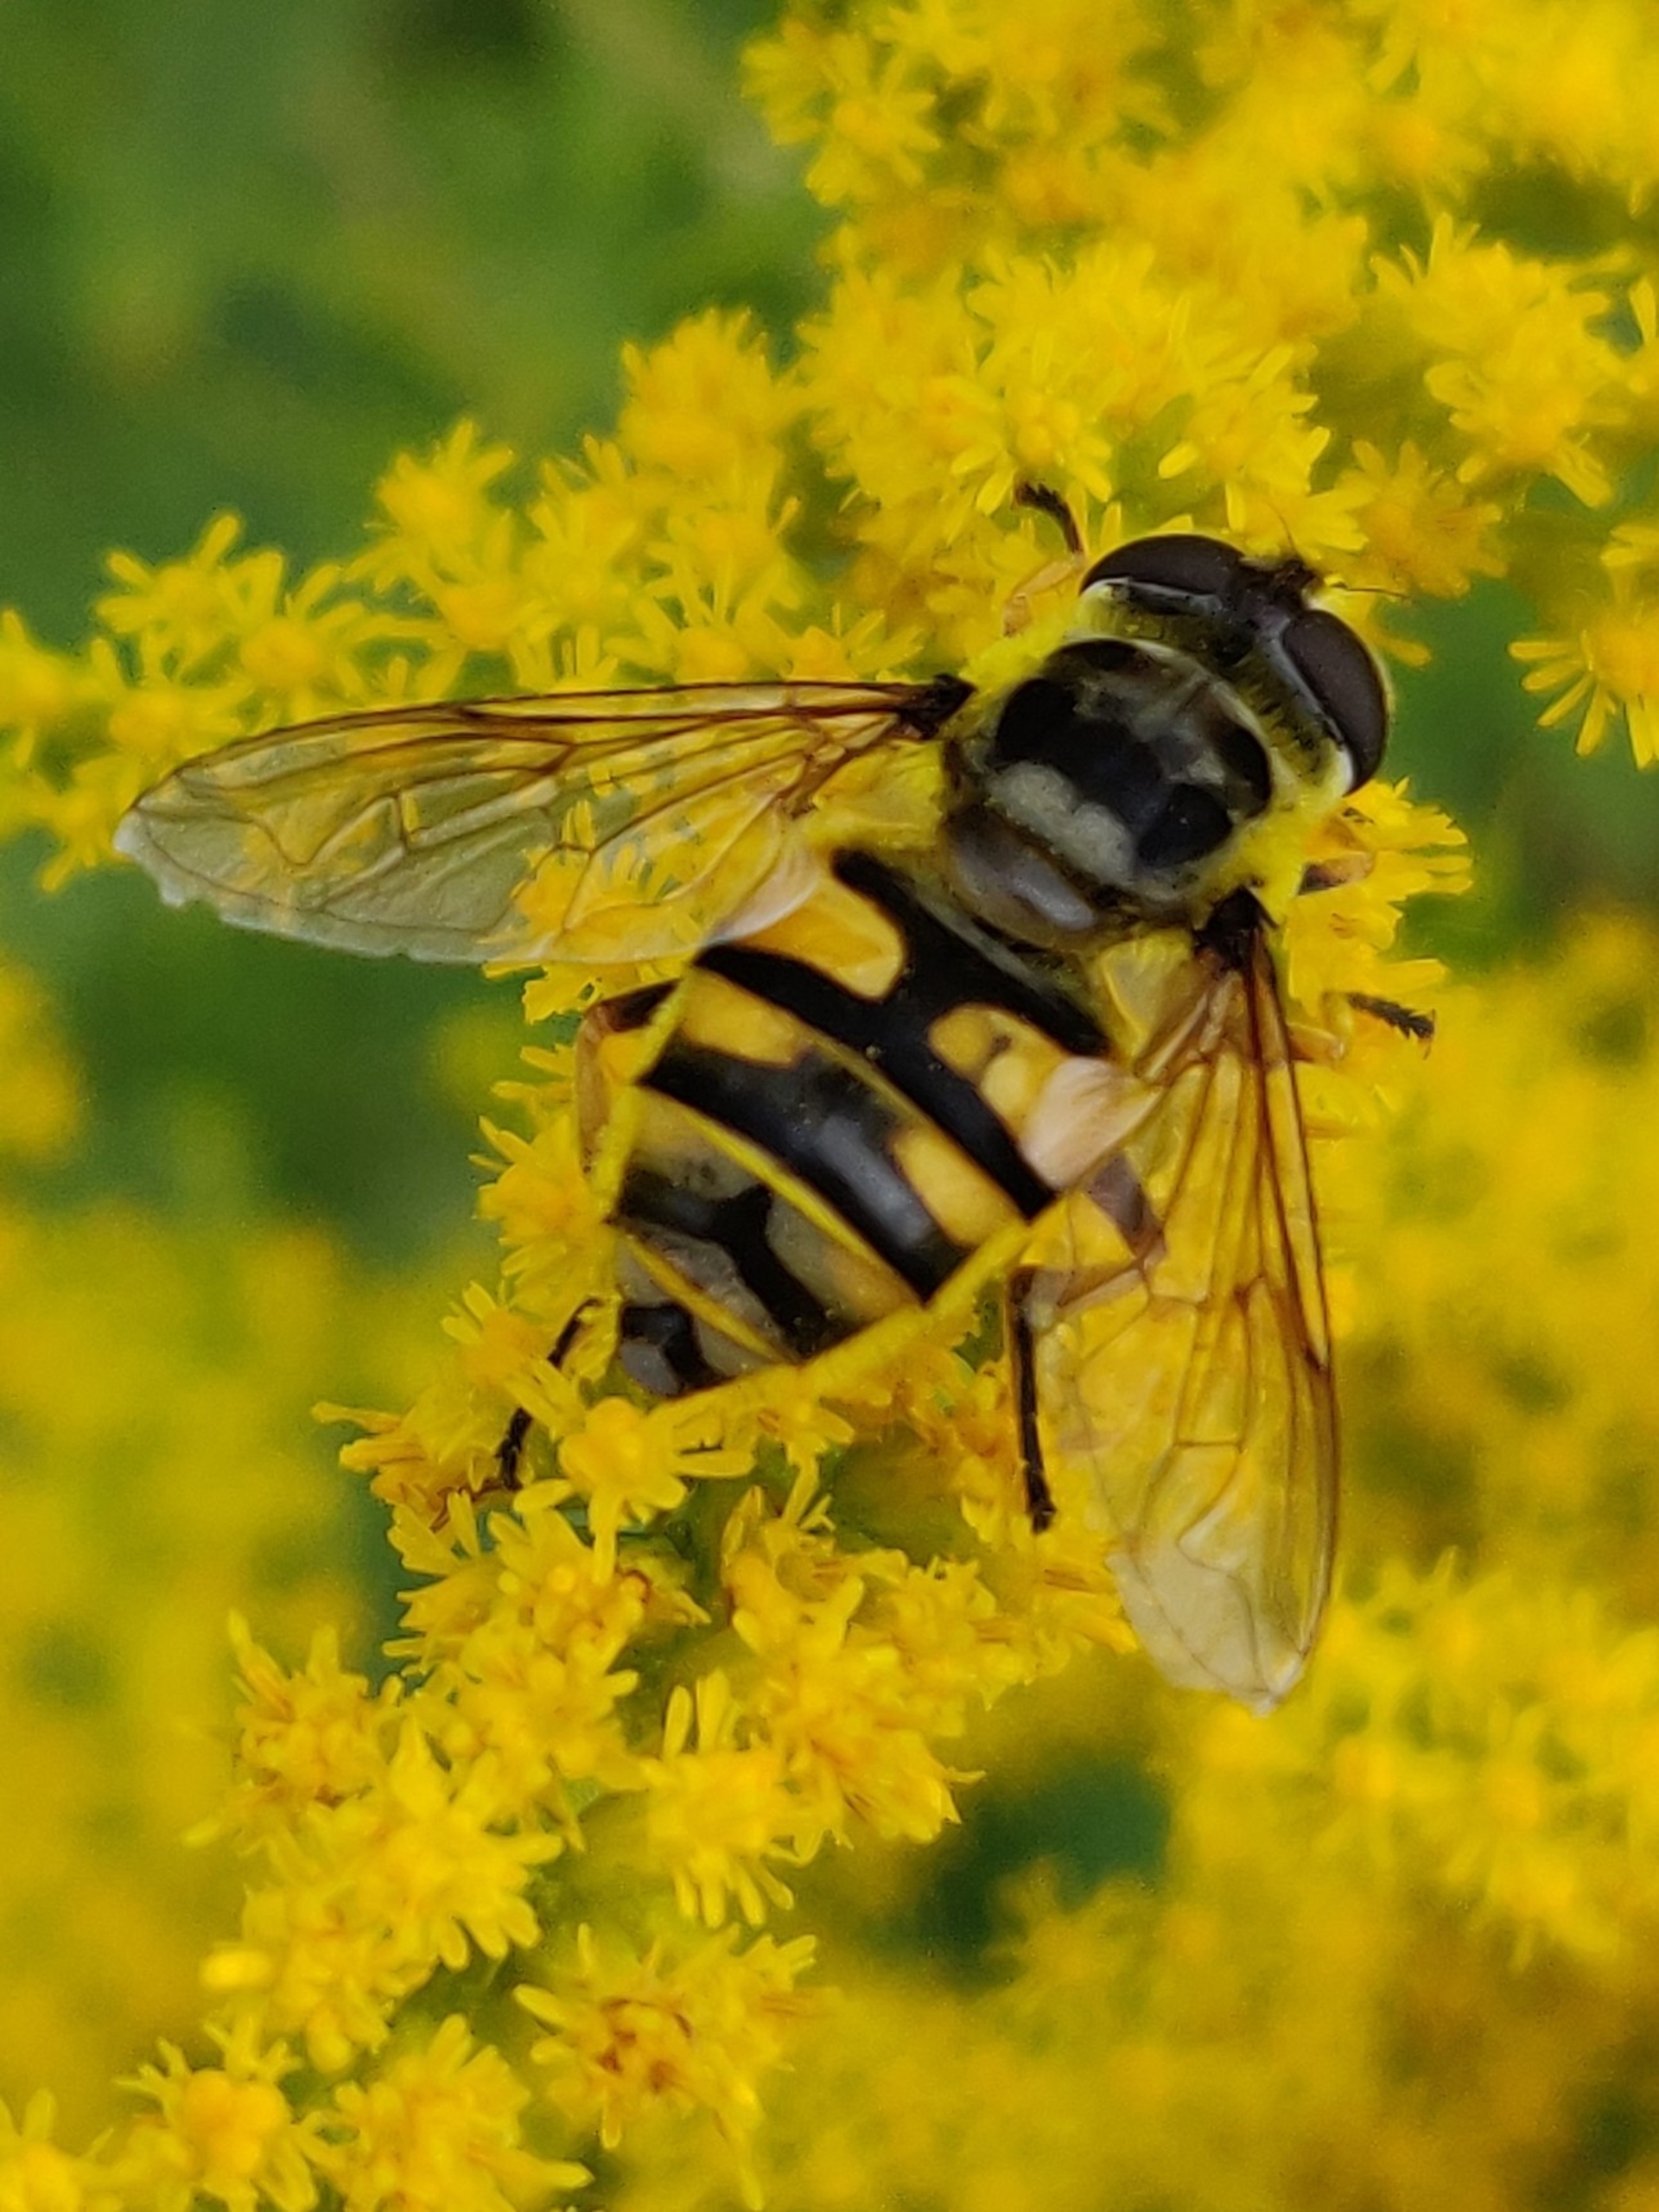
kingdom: Animalia
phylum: Arthropoda
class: Insecta
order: Diptera
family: Syrphidae
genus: Myathropa
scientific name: Myathropa florea
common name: Dødningehoved-svirreflue
